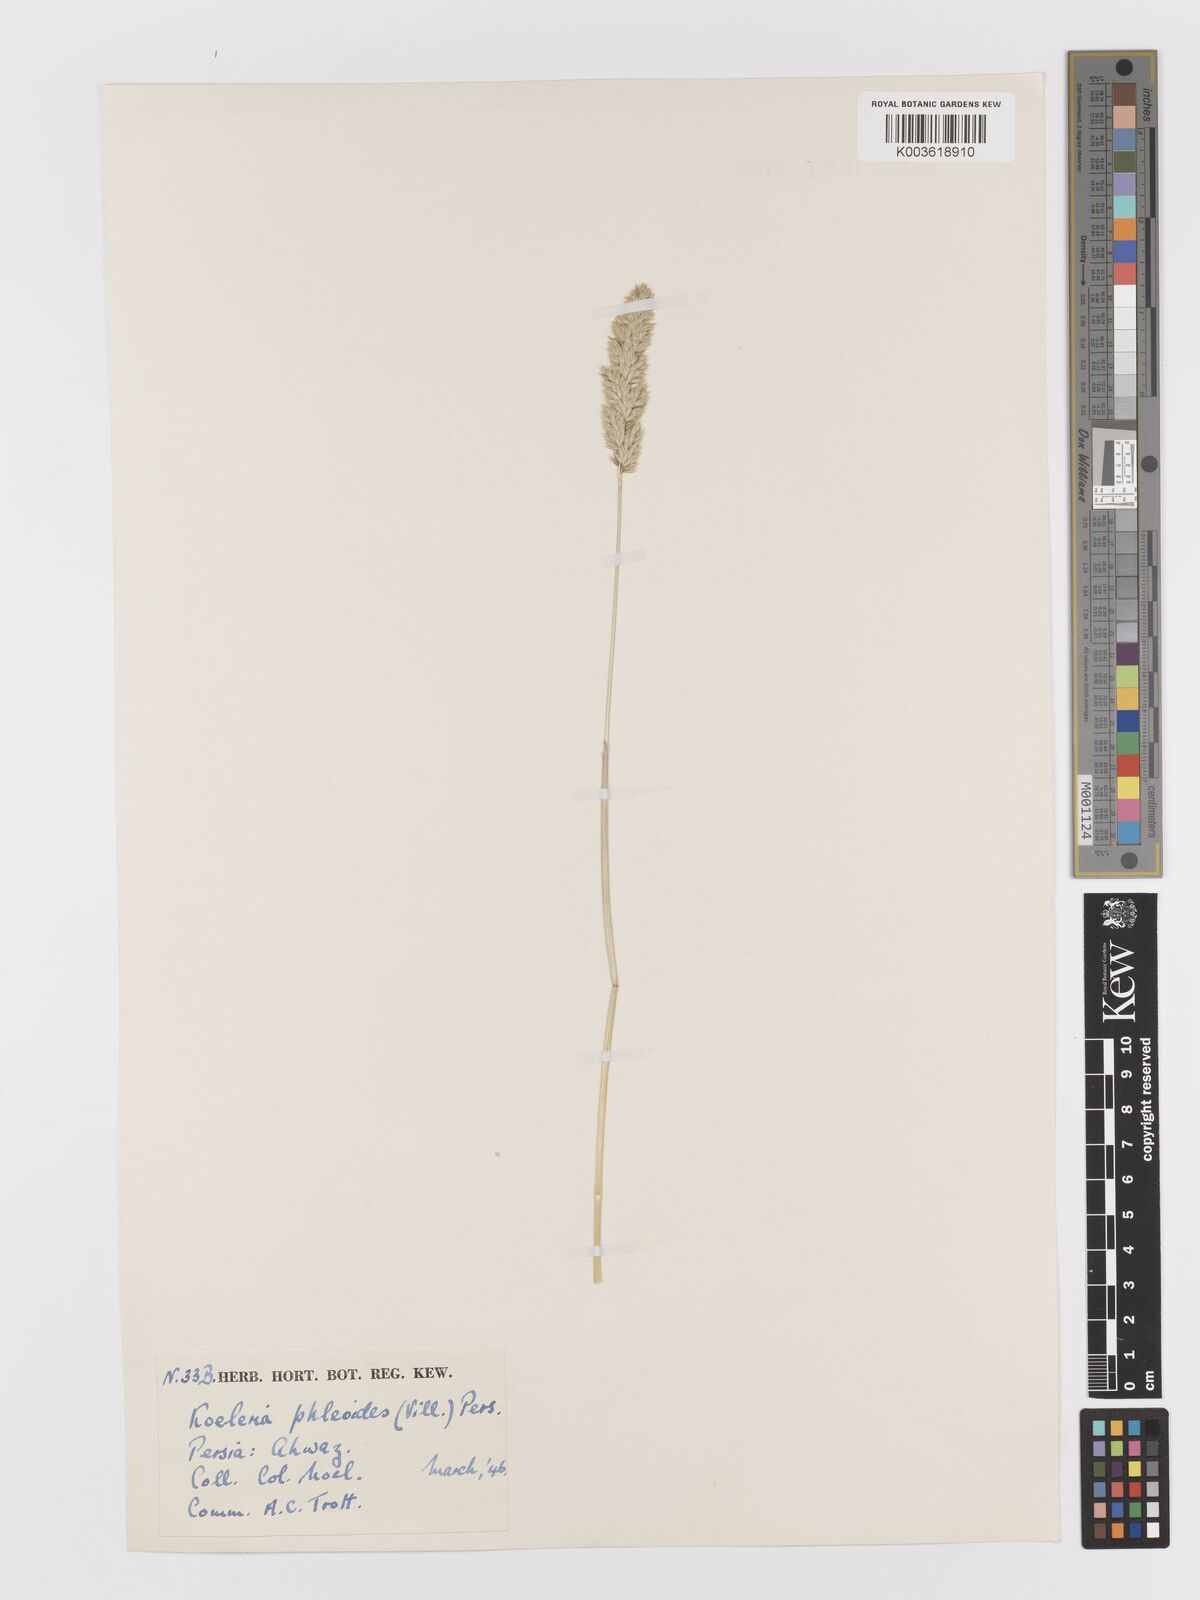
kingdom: Plantae
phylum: Tracheophyta
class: Liliopsida
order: Poales
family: Poaceae
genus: Rostraria
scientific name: Rostraria cristata
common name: Mediterranean hair-grass
